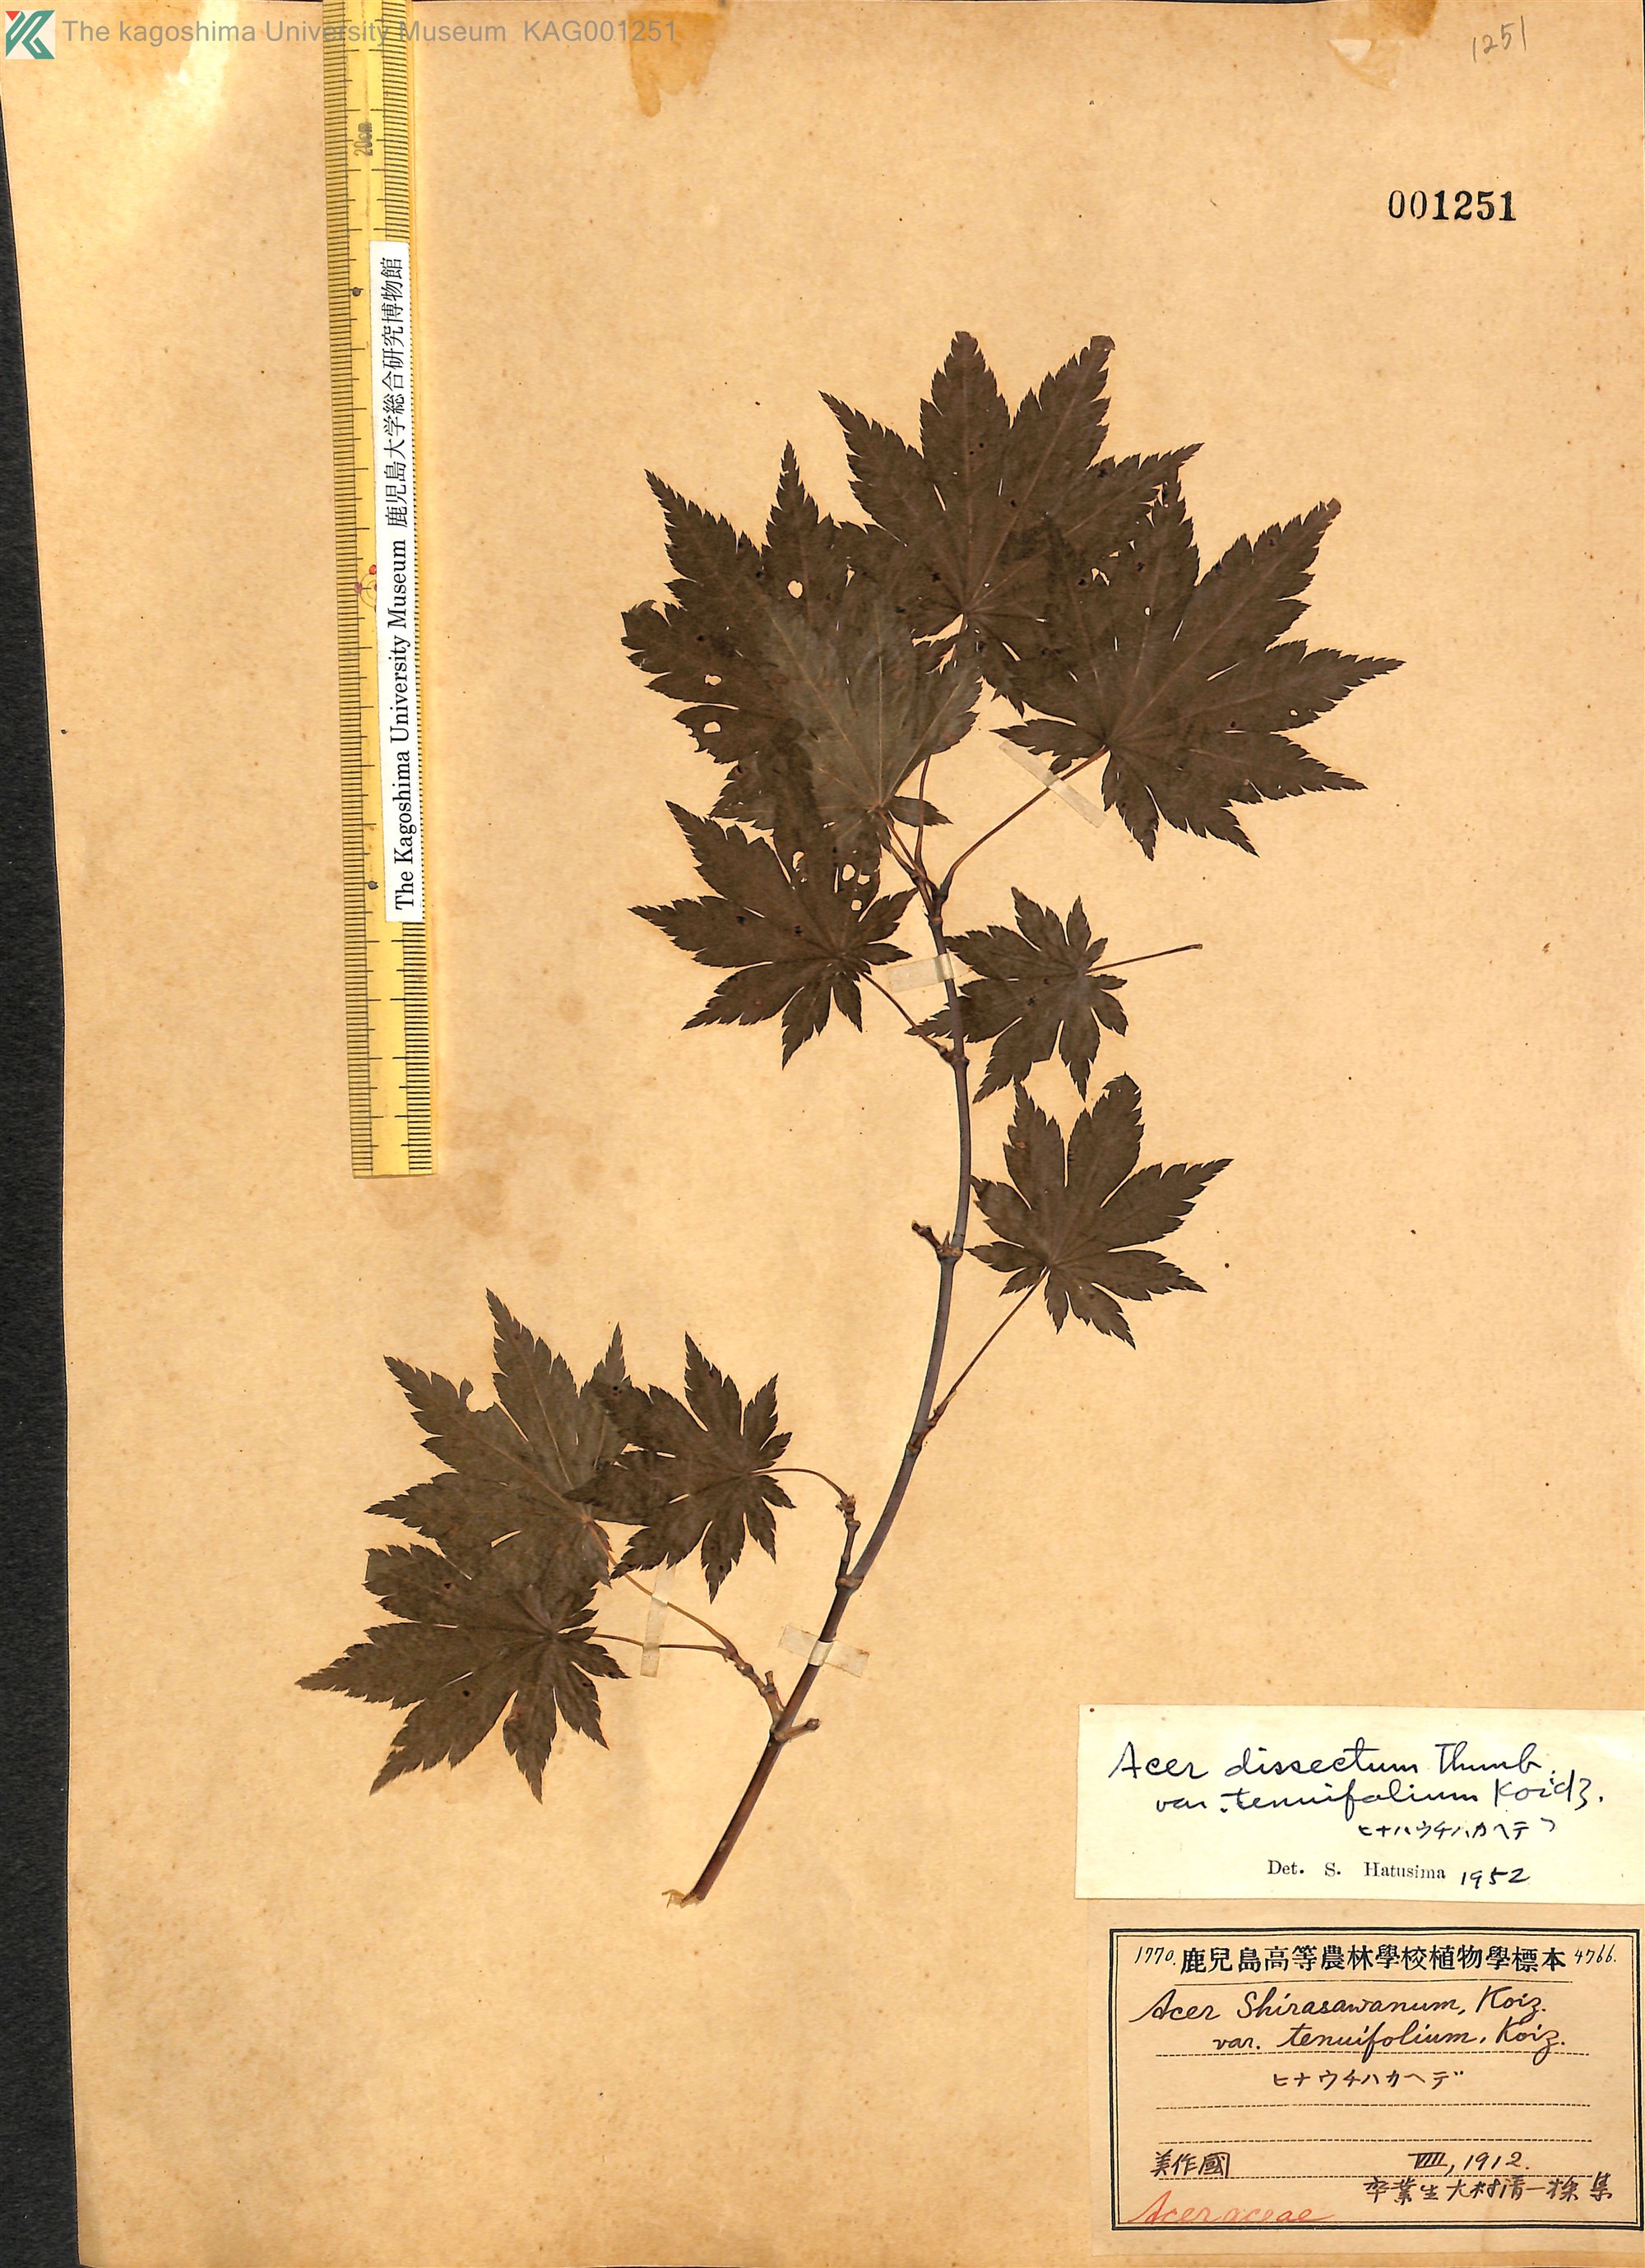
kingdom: Plantae
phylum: Tracheophyta
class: Magnoliopsida
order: Sapindales
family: Sapindaceae
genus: Acer
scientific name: Acer shirasawanum
